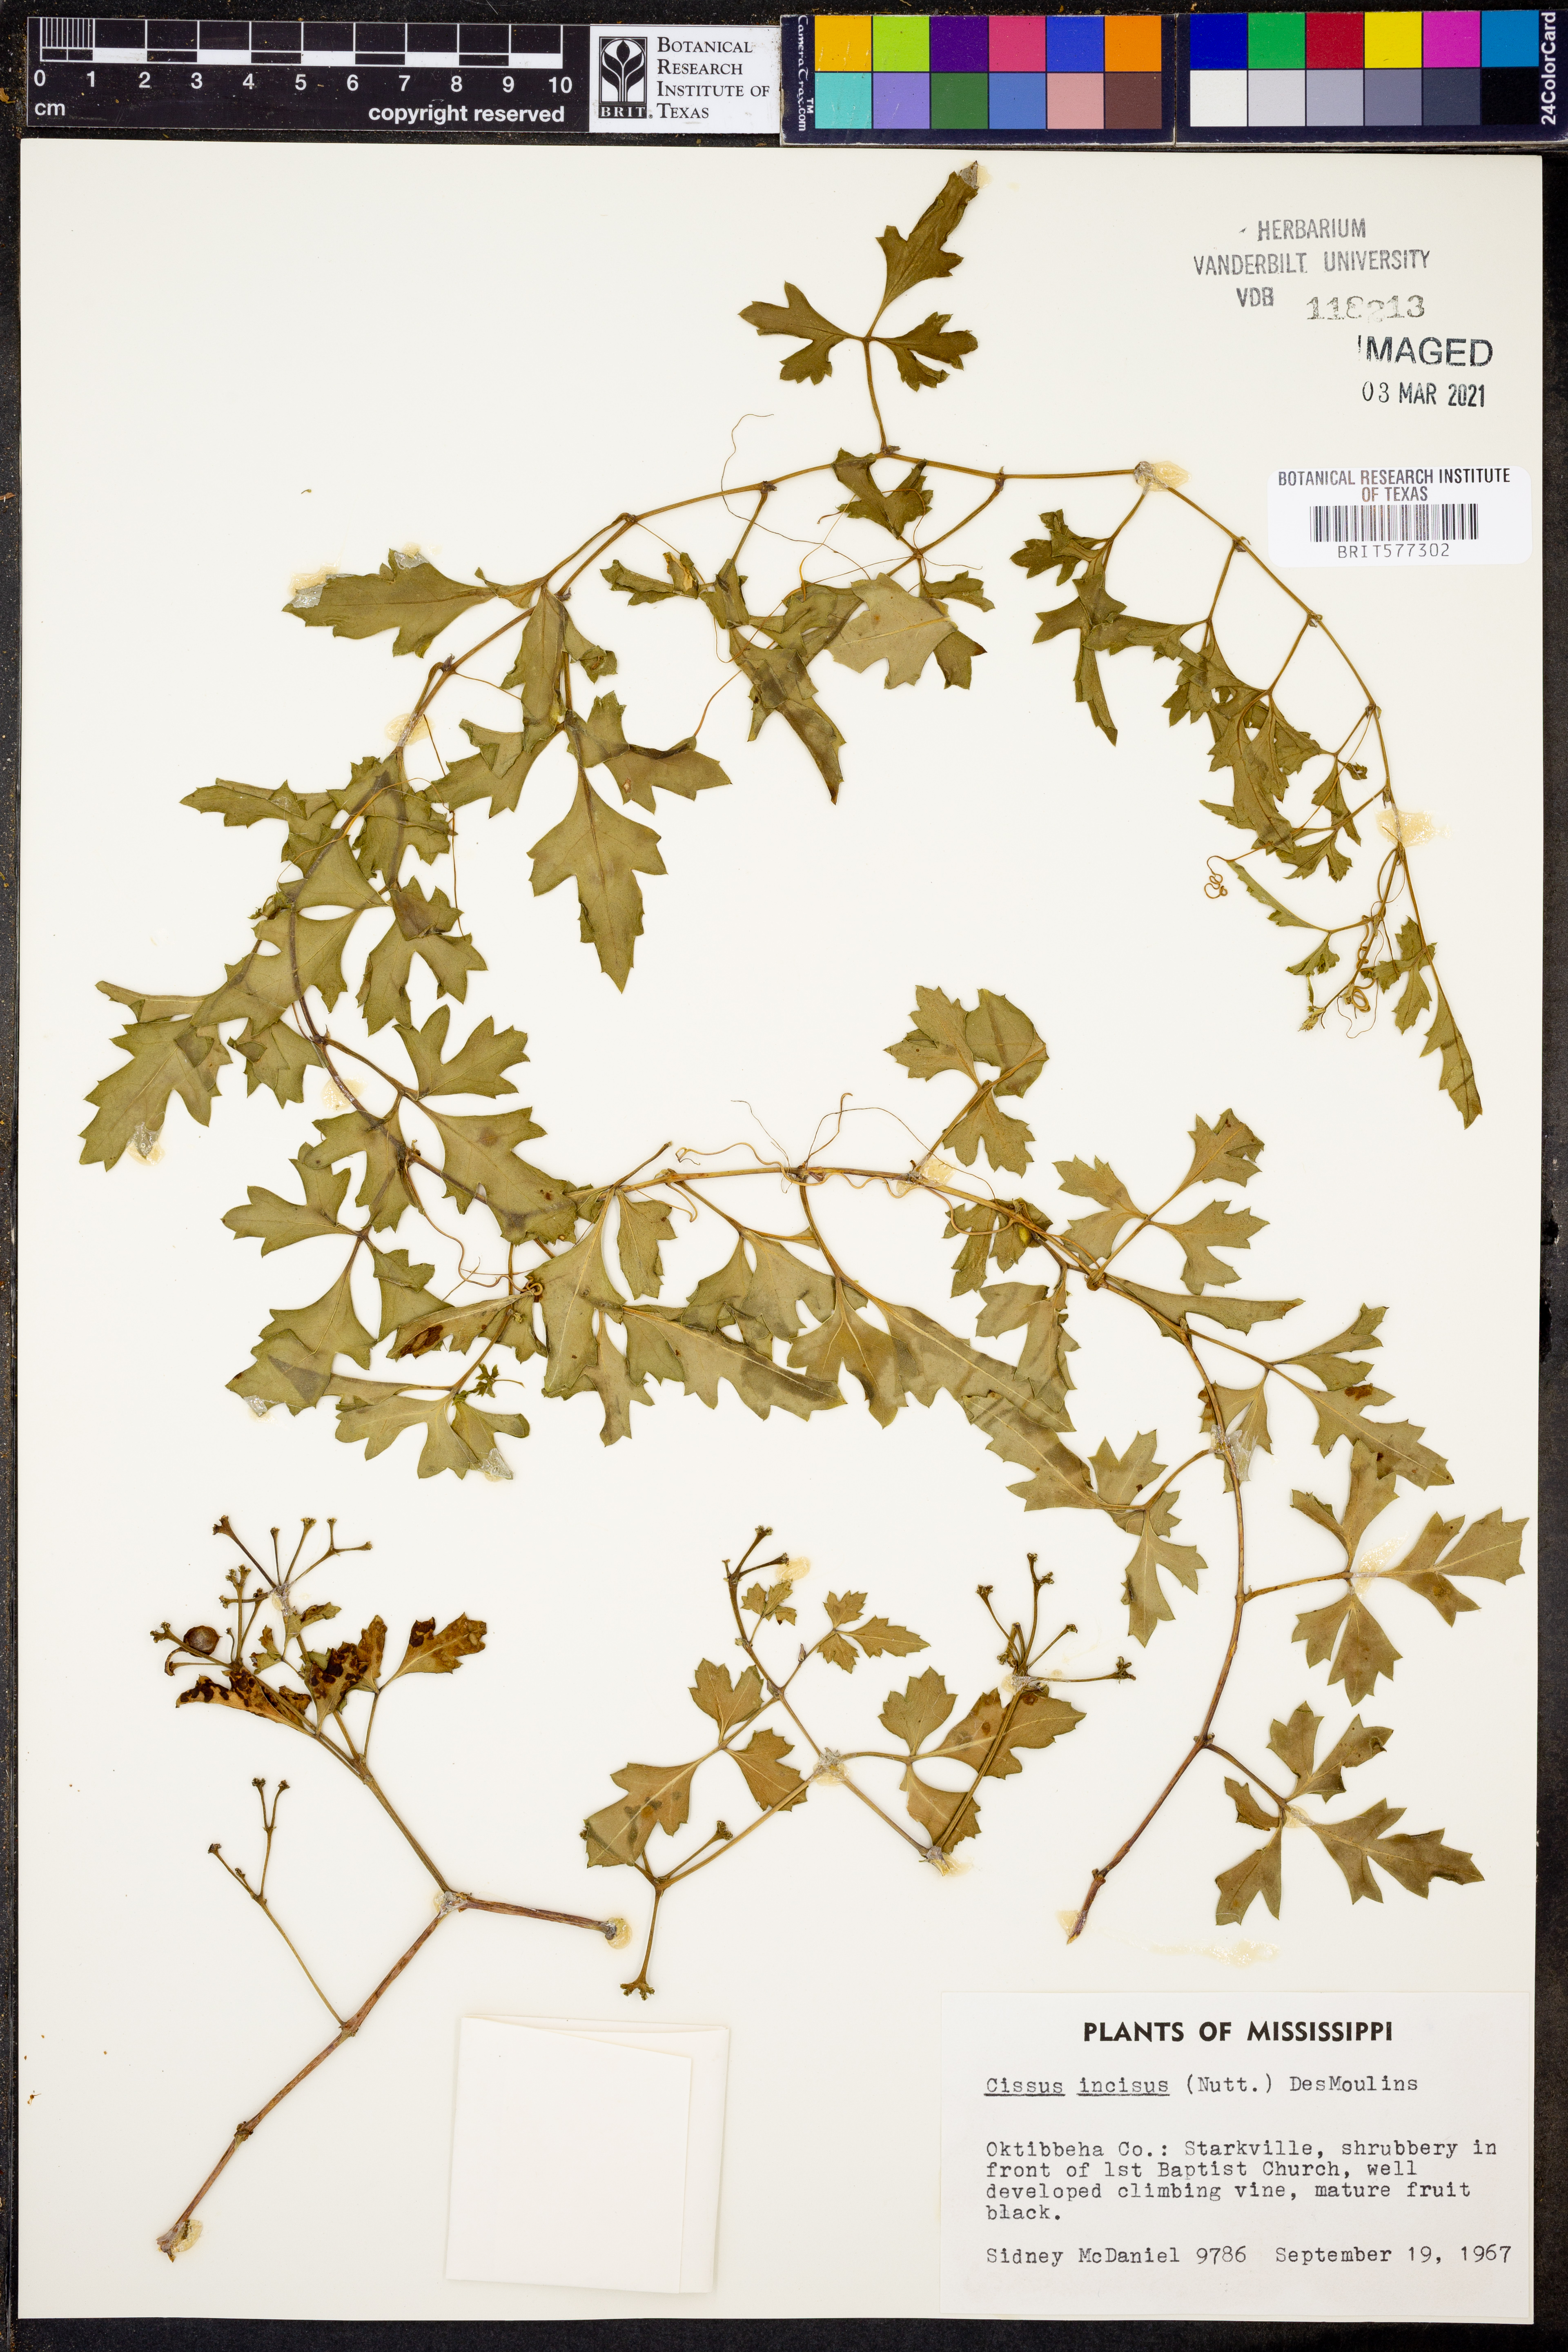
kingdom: Plantae
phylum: Tracheophyta
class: Magnoliopsida
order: Vitales
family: Vitaceae
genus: Cissus
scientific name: Cissus trifoliata
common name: Vine-sorrel
